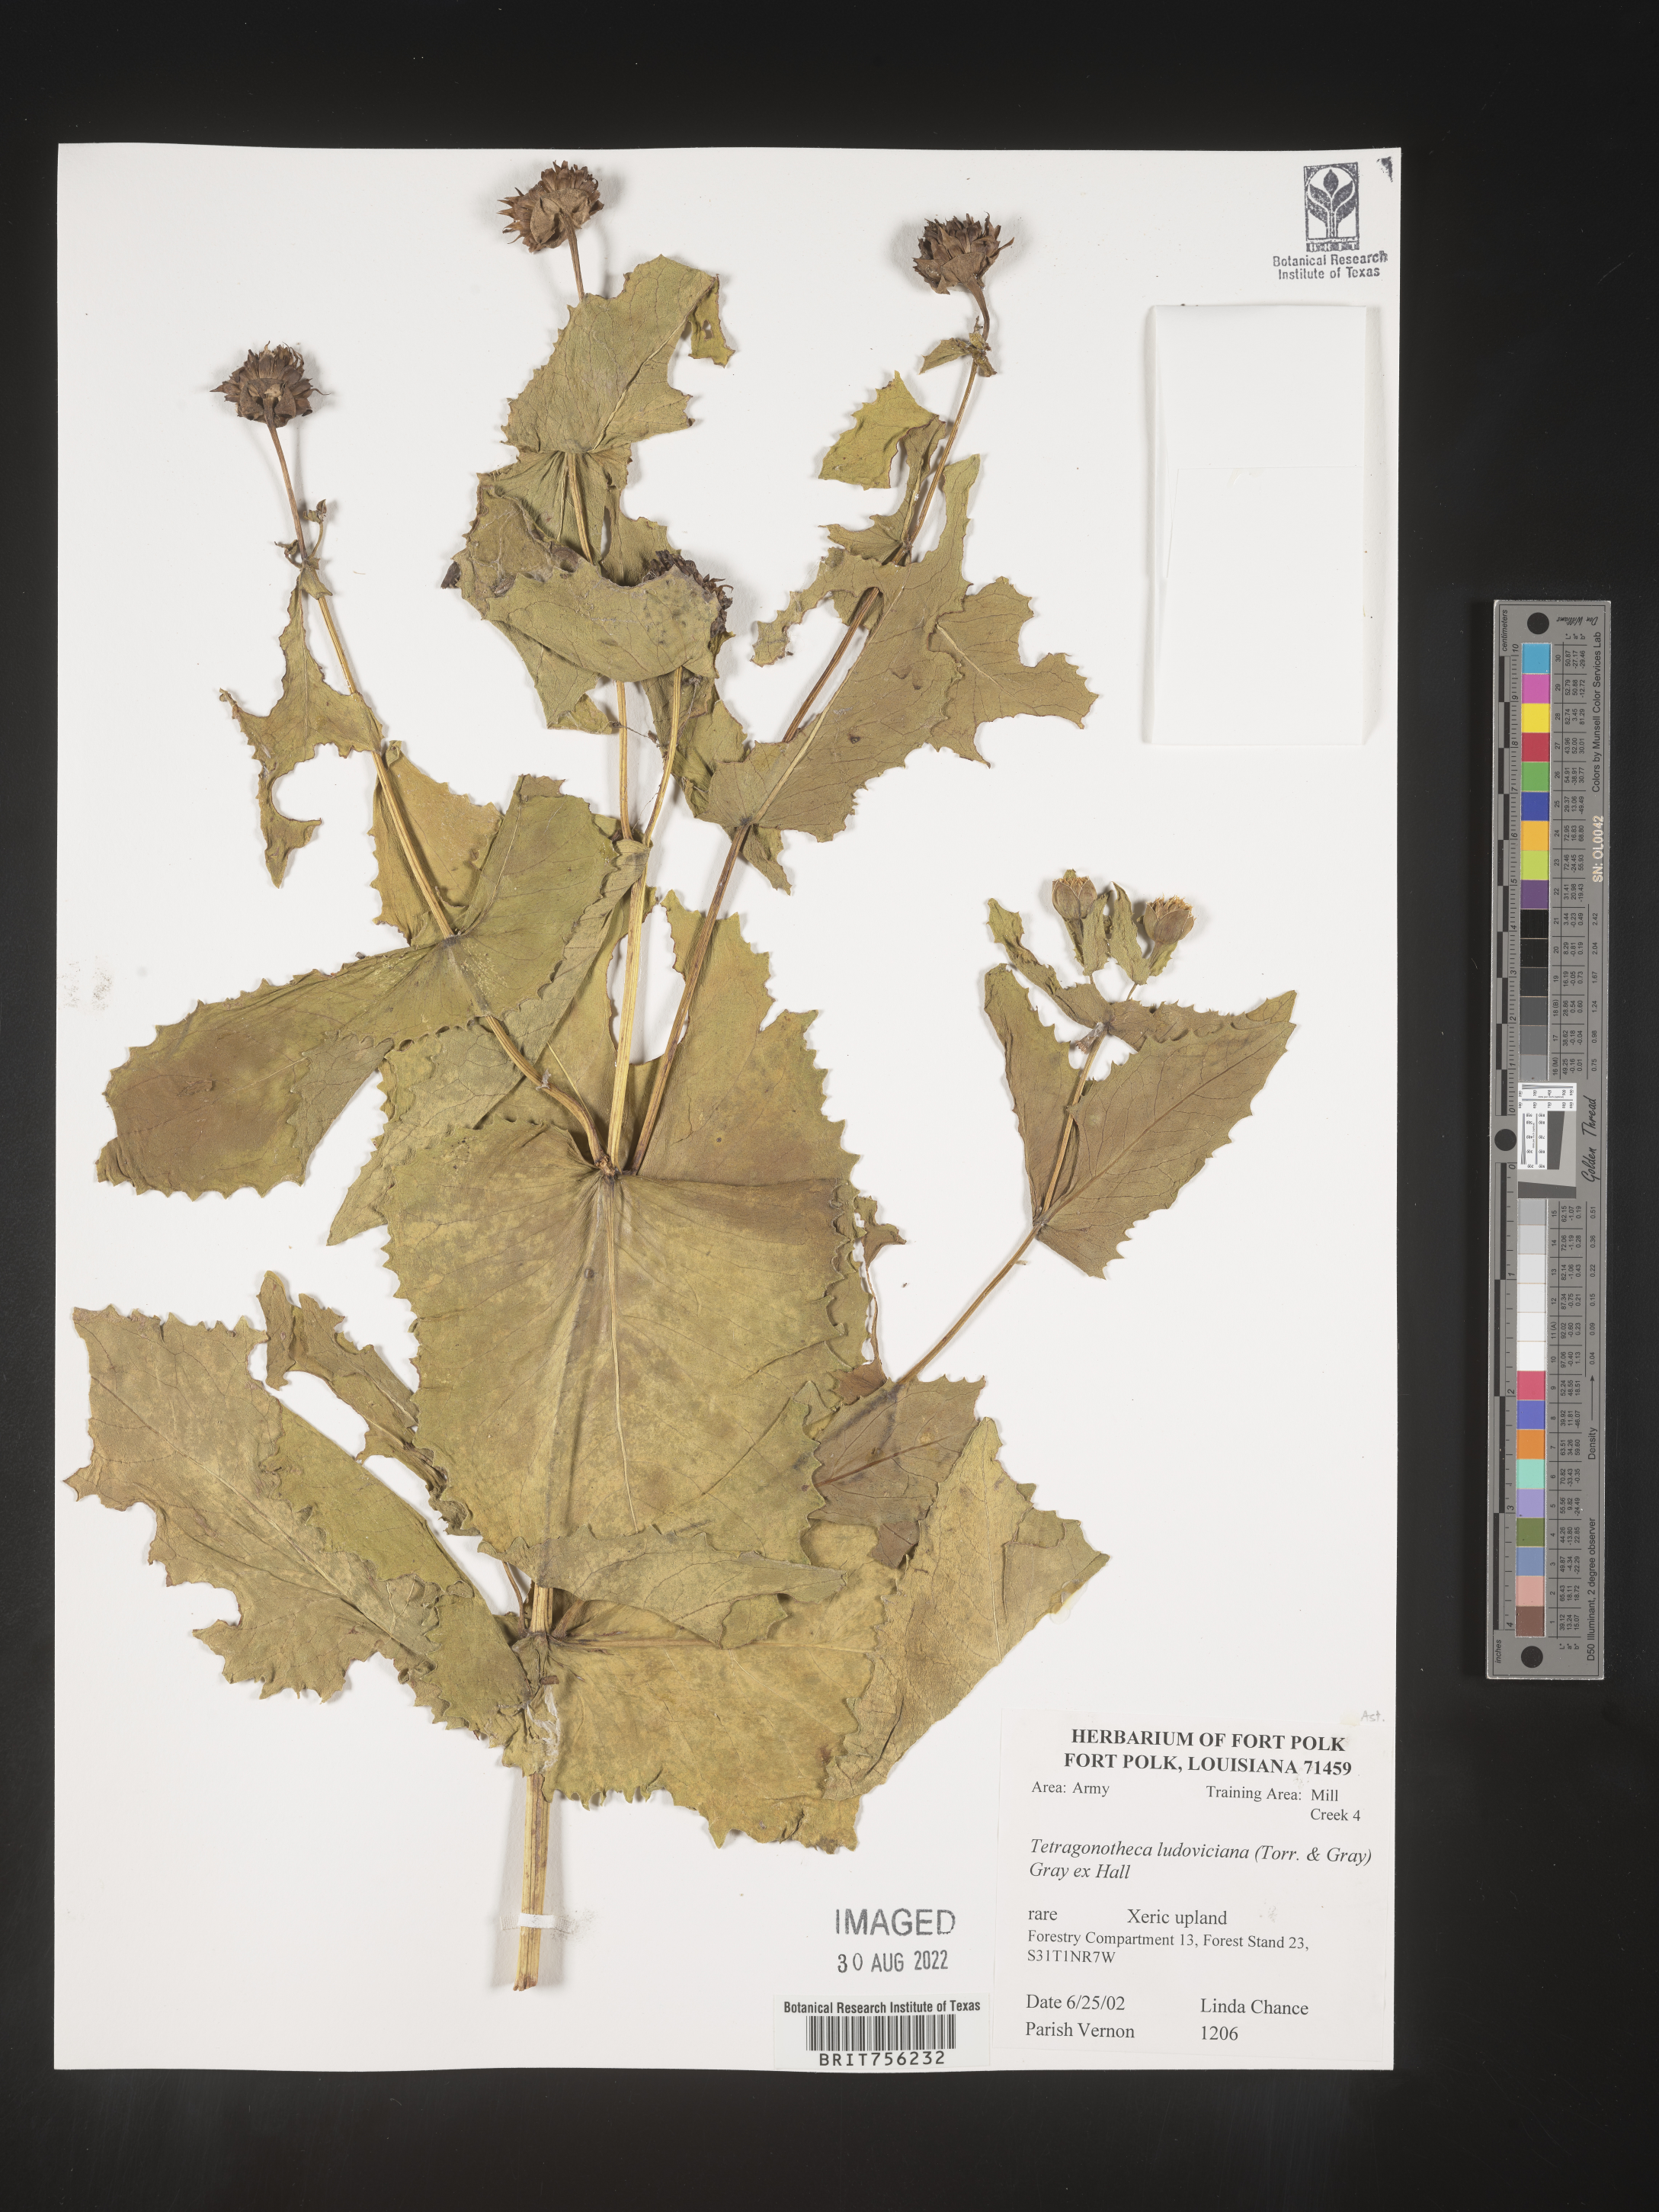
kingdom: Plantae
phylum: Tracheophyta
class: Magnoliopsida
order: Asterales
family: Asteraceae
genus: Tetragonotheca
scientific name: Tetragonotheca
